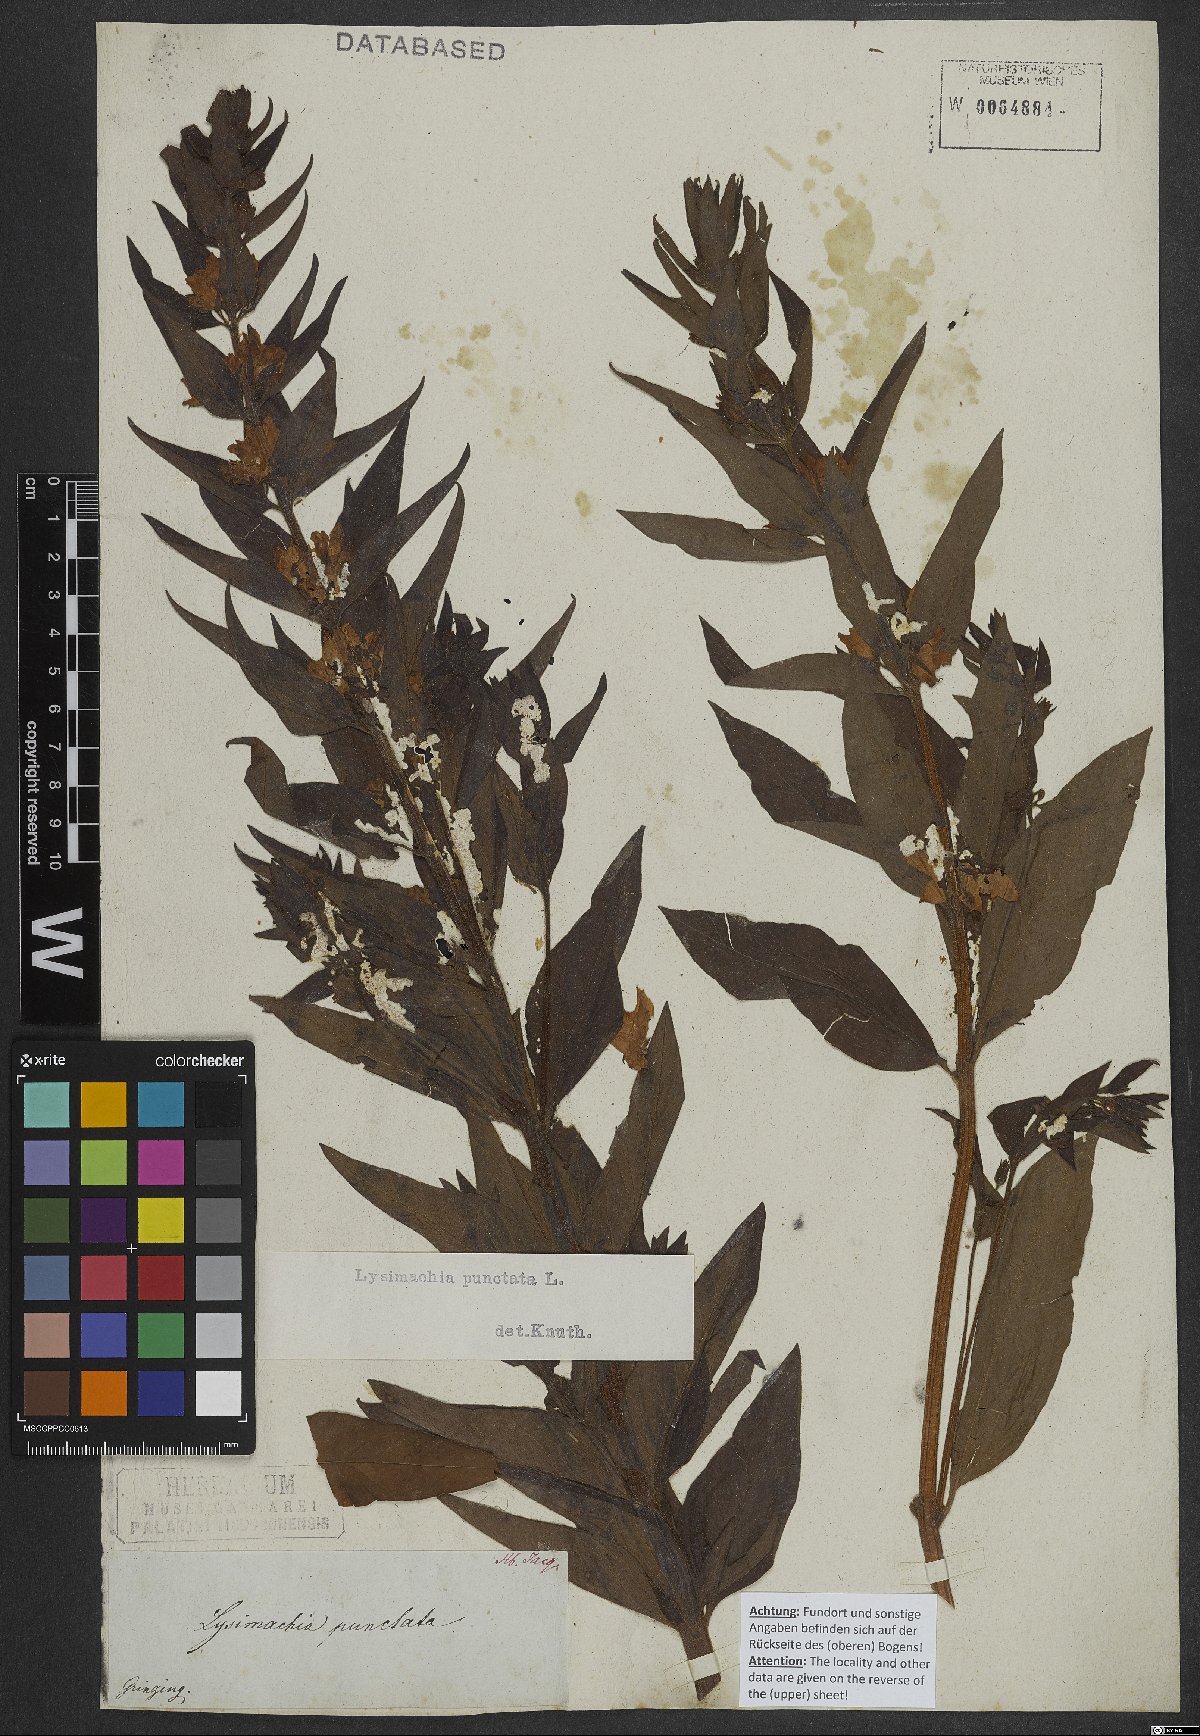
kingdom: Plantae
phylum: Tracheophyta
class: Magnoliopsida
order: Ericales
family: Primulaceae
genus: Lysimachia
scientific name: Lysimachia punctata
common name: Dotted loosestrife
